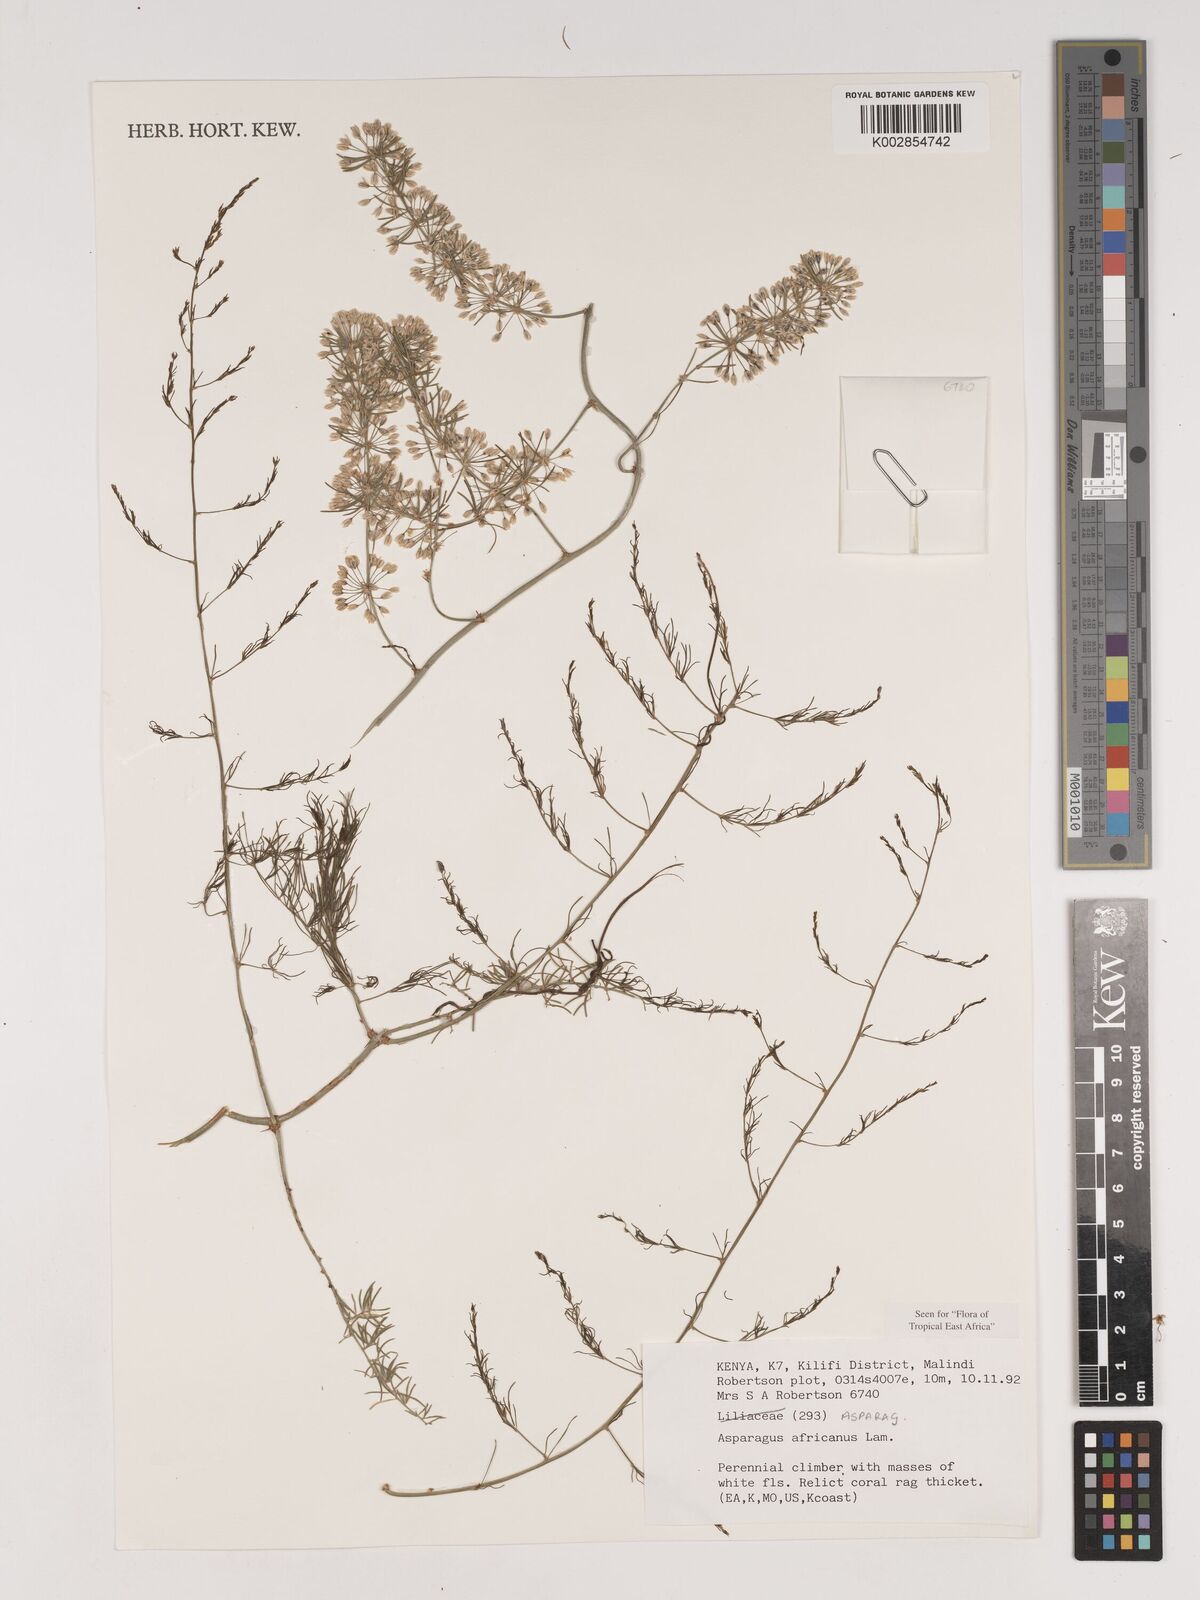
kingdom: Plantae
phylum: Tracheophyta
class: Liliopsida
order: Asparagales
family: Asparagaceae
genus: Asparagus
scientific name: Asparagus africanus
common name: Asparagus-fern
